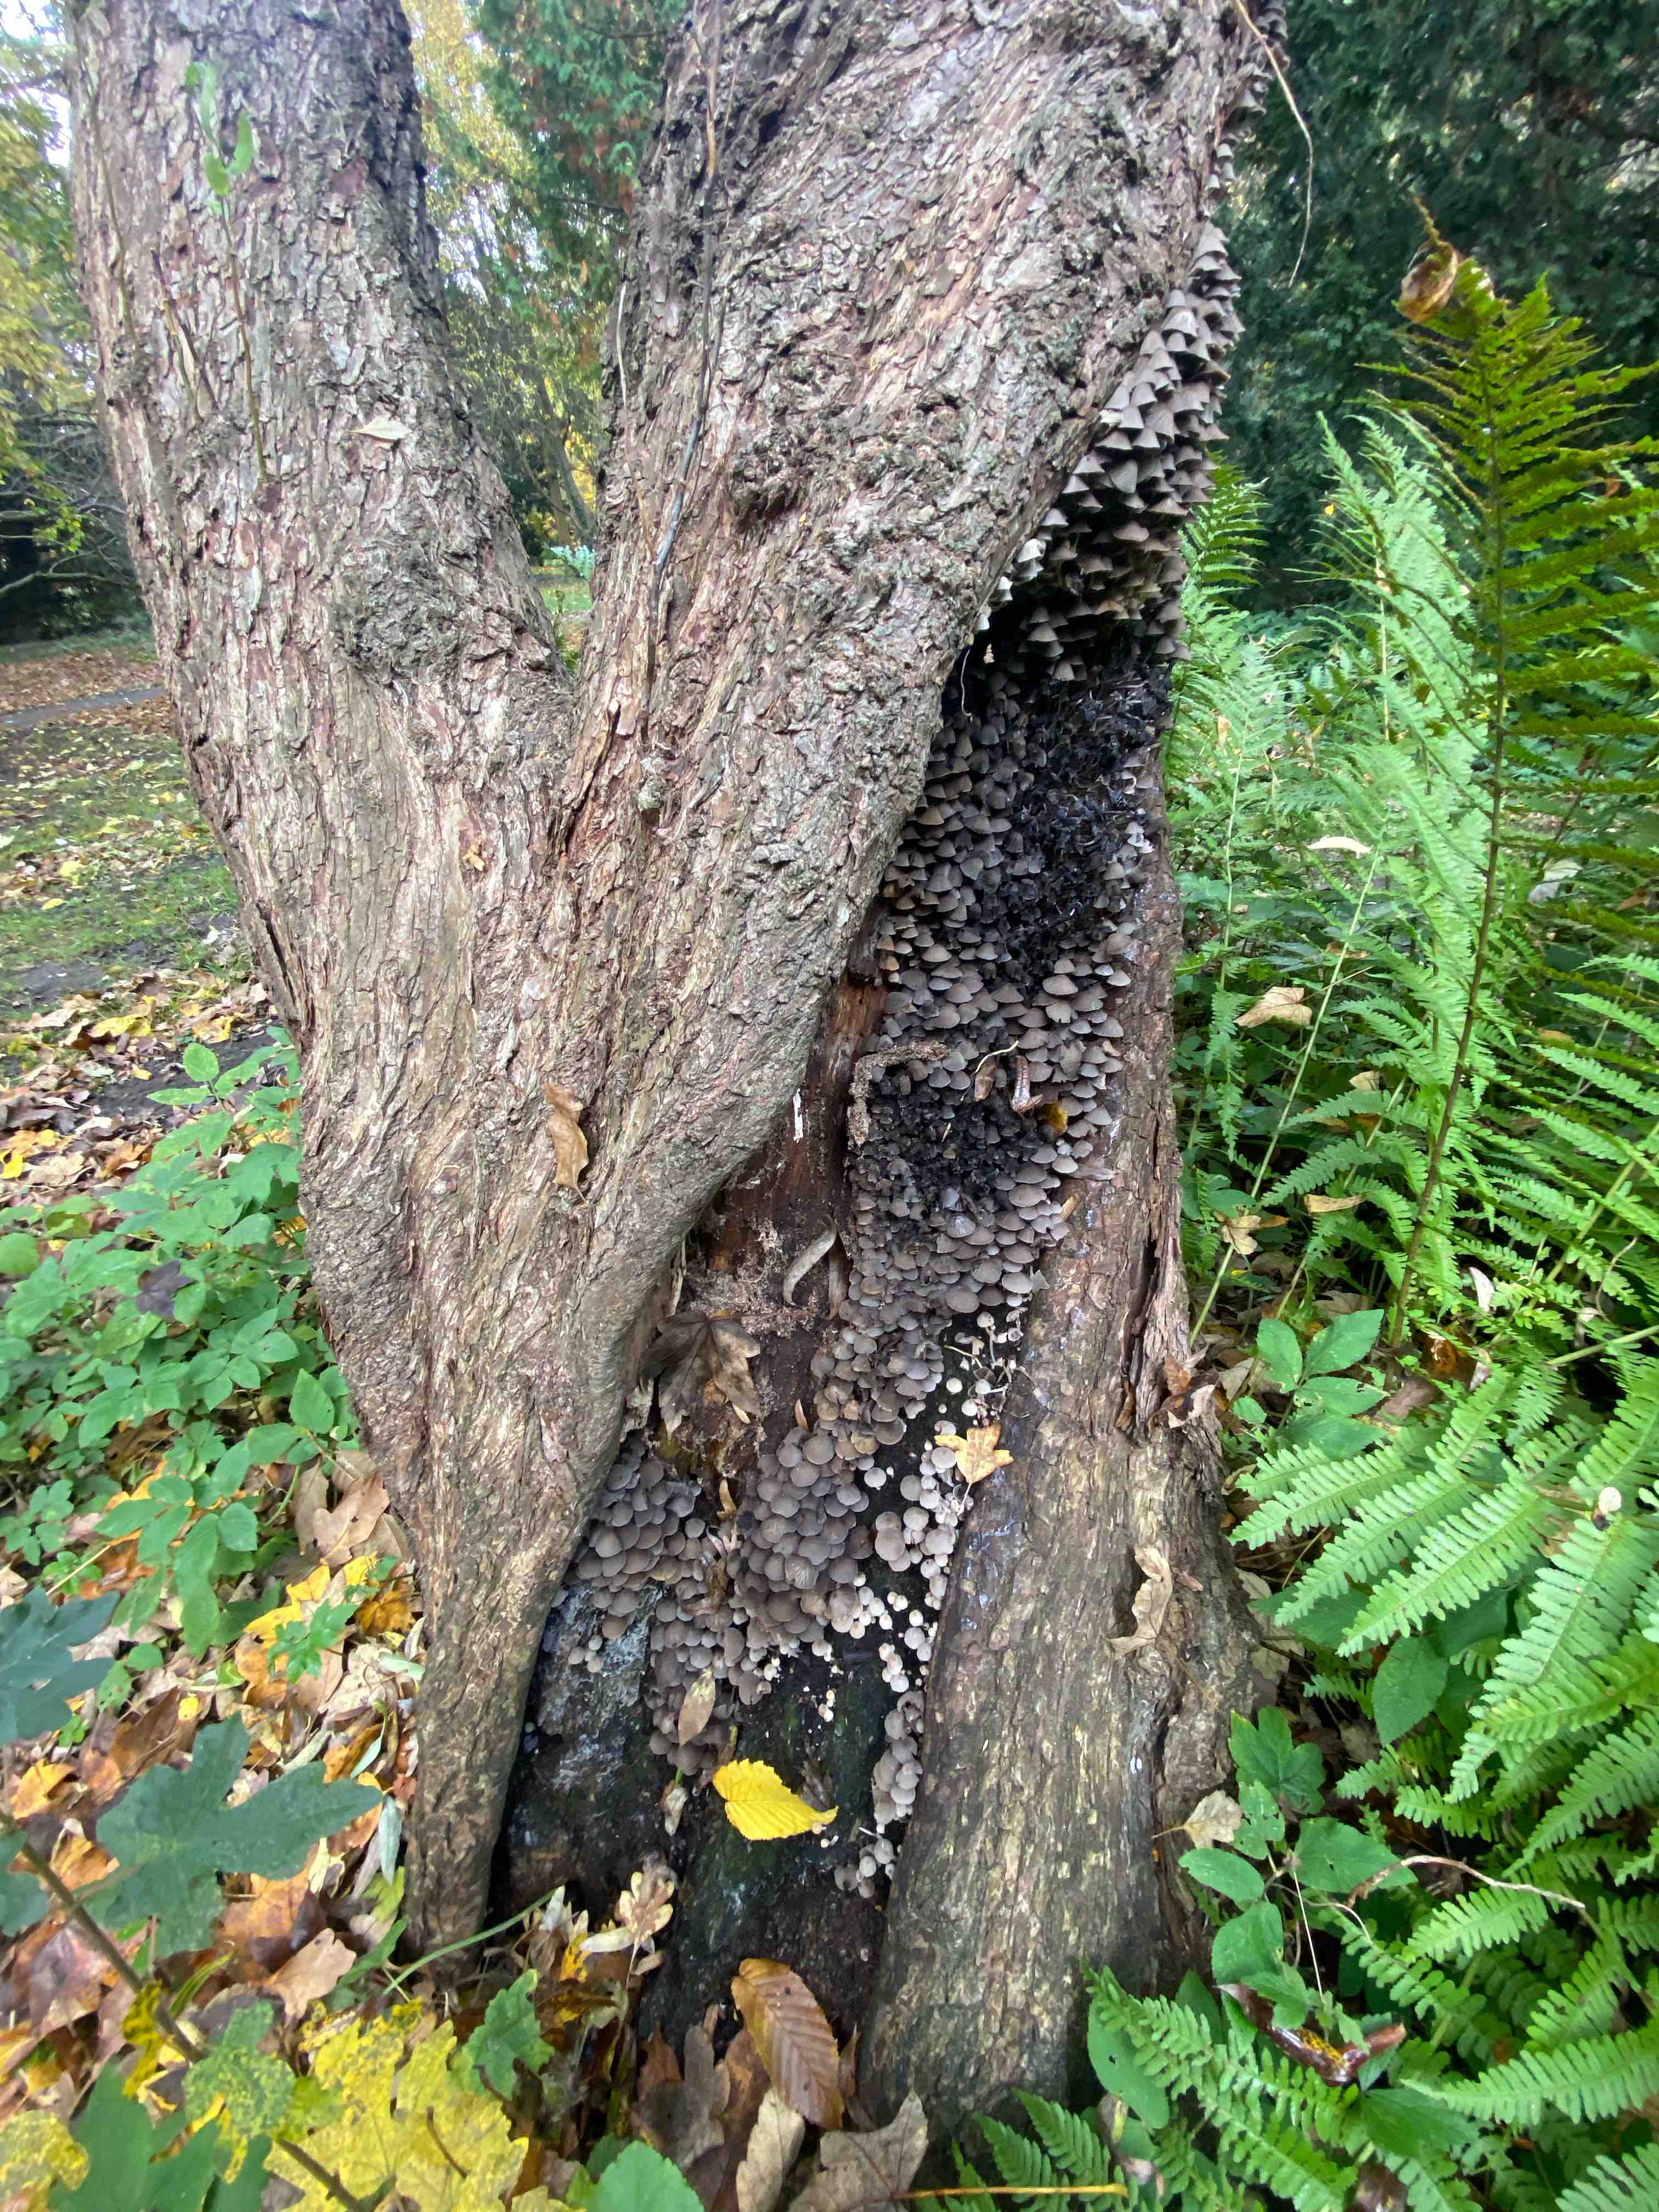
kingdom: Fungi
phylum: Basidiomycota
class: Agaricomycetes
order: Agaricales
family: Psathyrellaceae
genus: Coprinellus
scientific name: Coprinellus disseminatus
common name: bredsået blækhat
